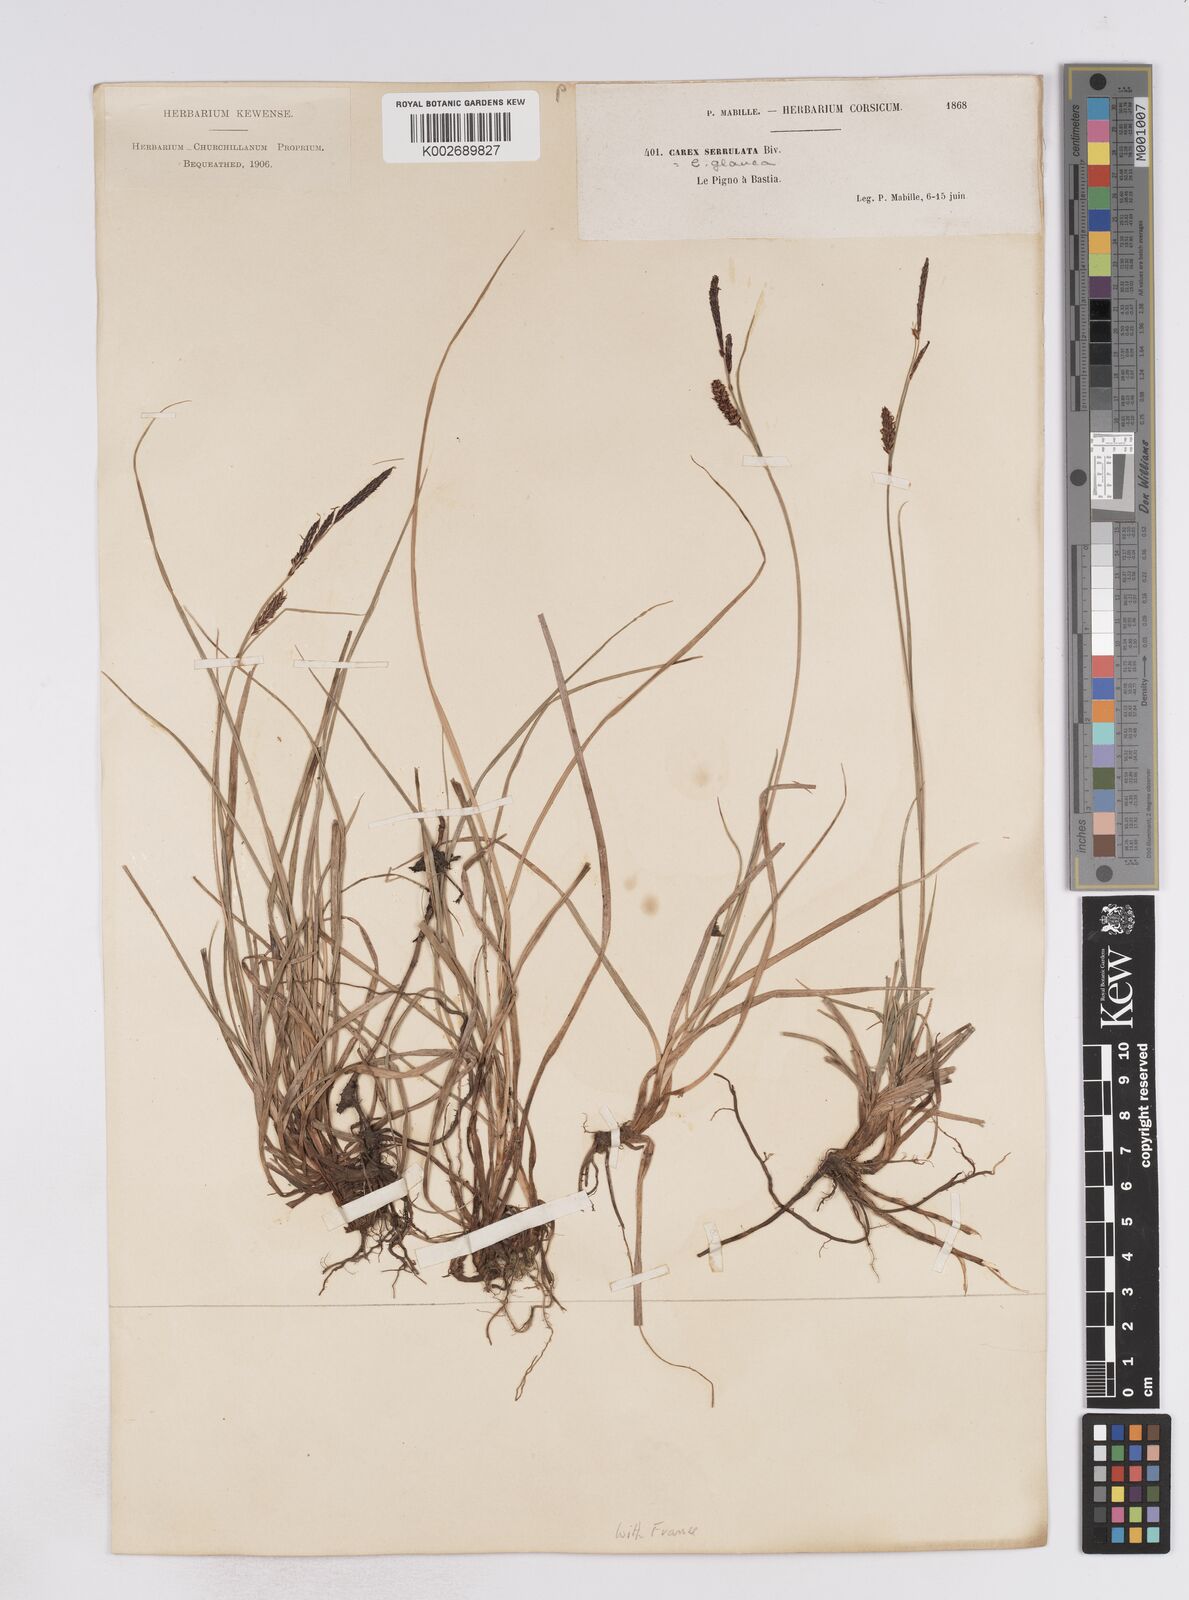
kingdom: Plantae
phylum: Tracheophyta
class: Liliopsida
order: Poales
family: Cyperaceae
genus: Carex
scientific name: Carex flacca
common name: Glaucous sedge
